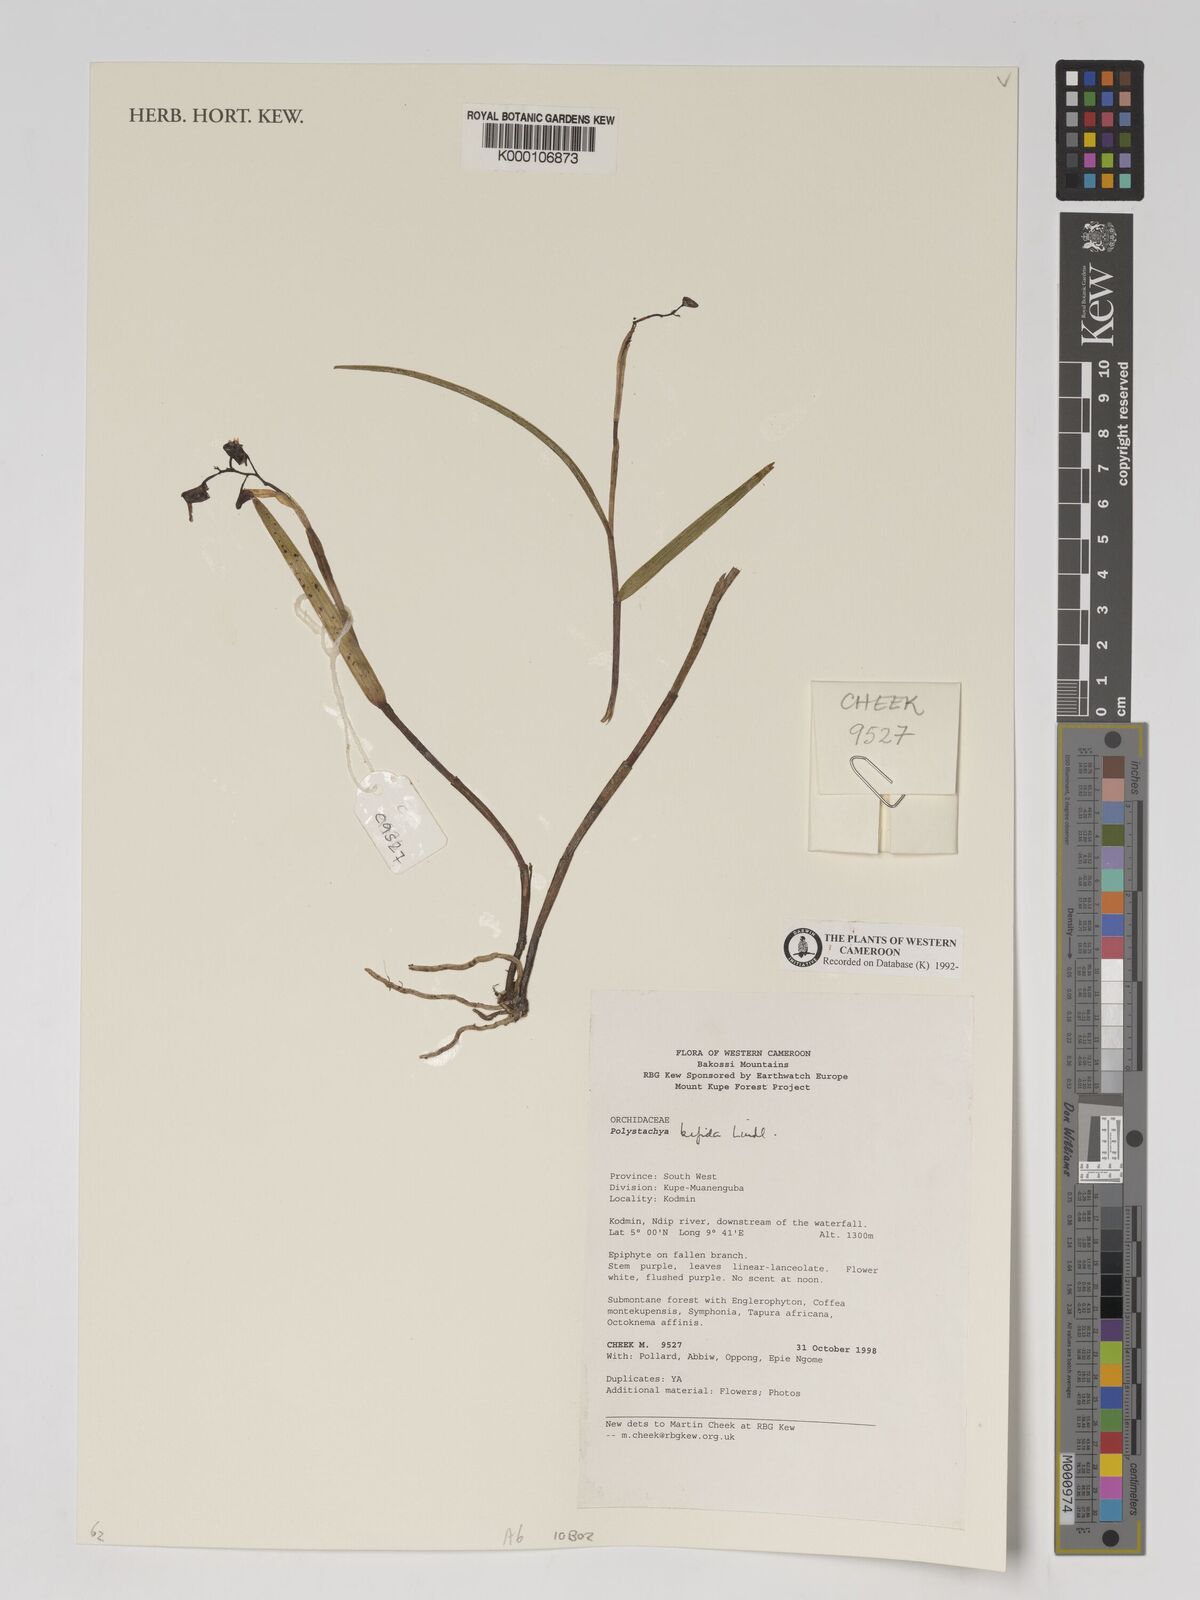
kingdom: Plantae
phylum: Tracheophyta
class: Liliopsida
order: Asparagales
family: Orchidaceae
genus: Polystachya
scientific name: Polystachya bifida
